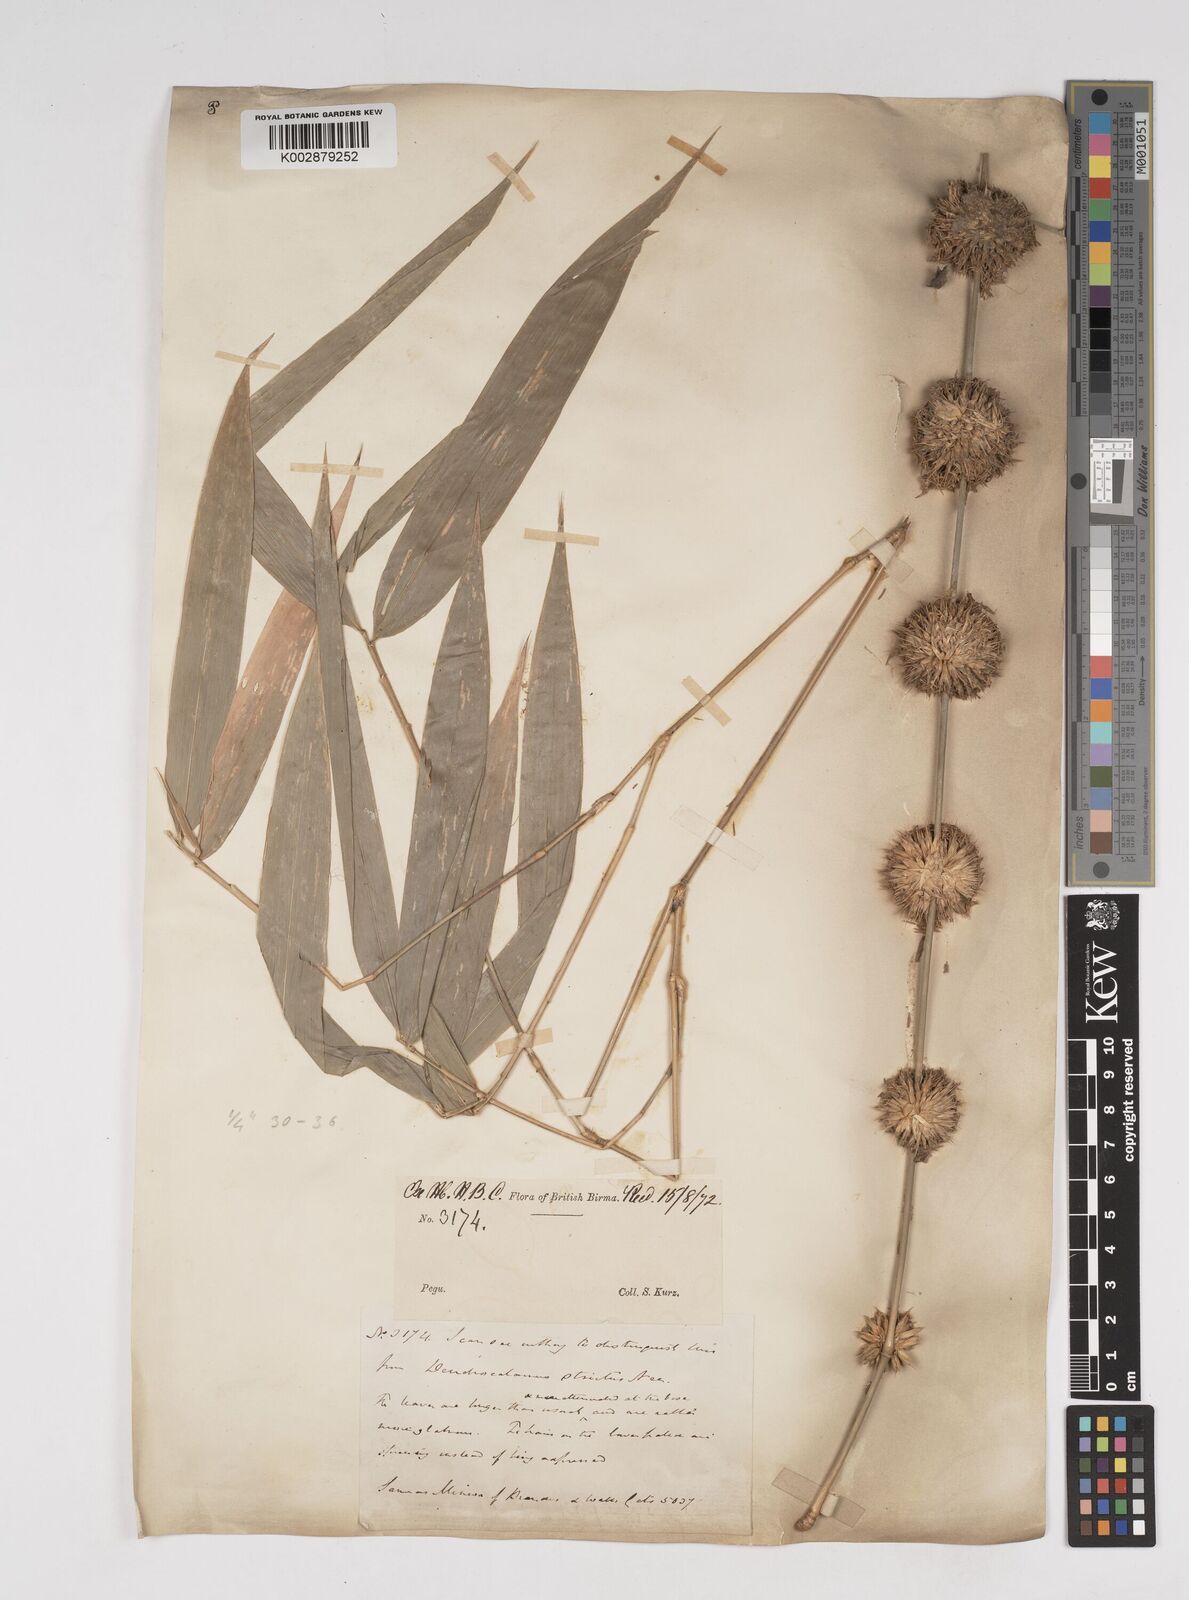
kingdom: Plantae
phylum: Tracheophyta
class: Liliopsida
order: Poales
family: Poaceae
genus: Dendrocalamus
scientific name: Dendrocalamus strictus
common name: Male bamboo
